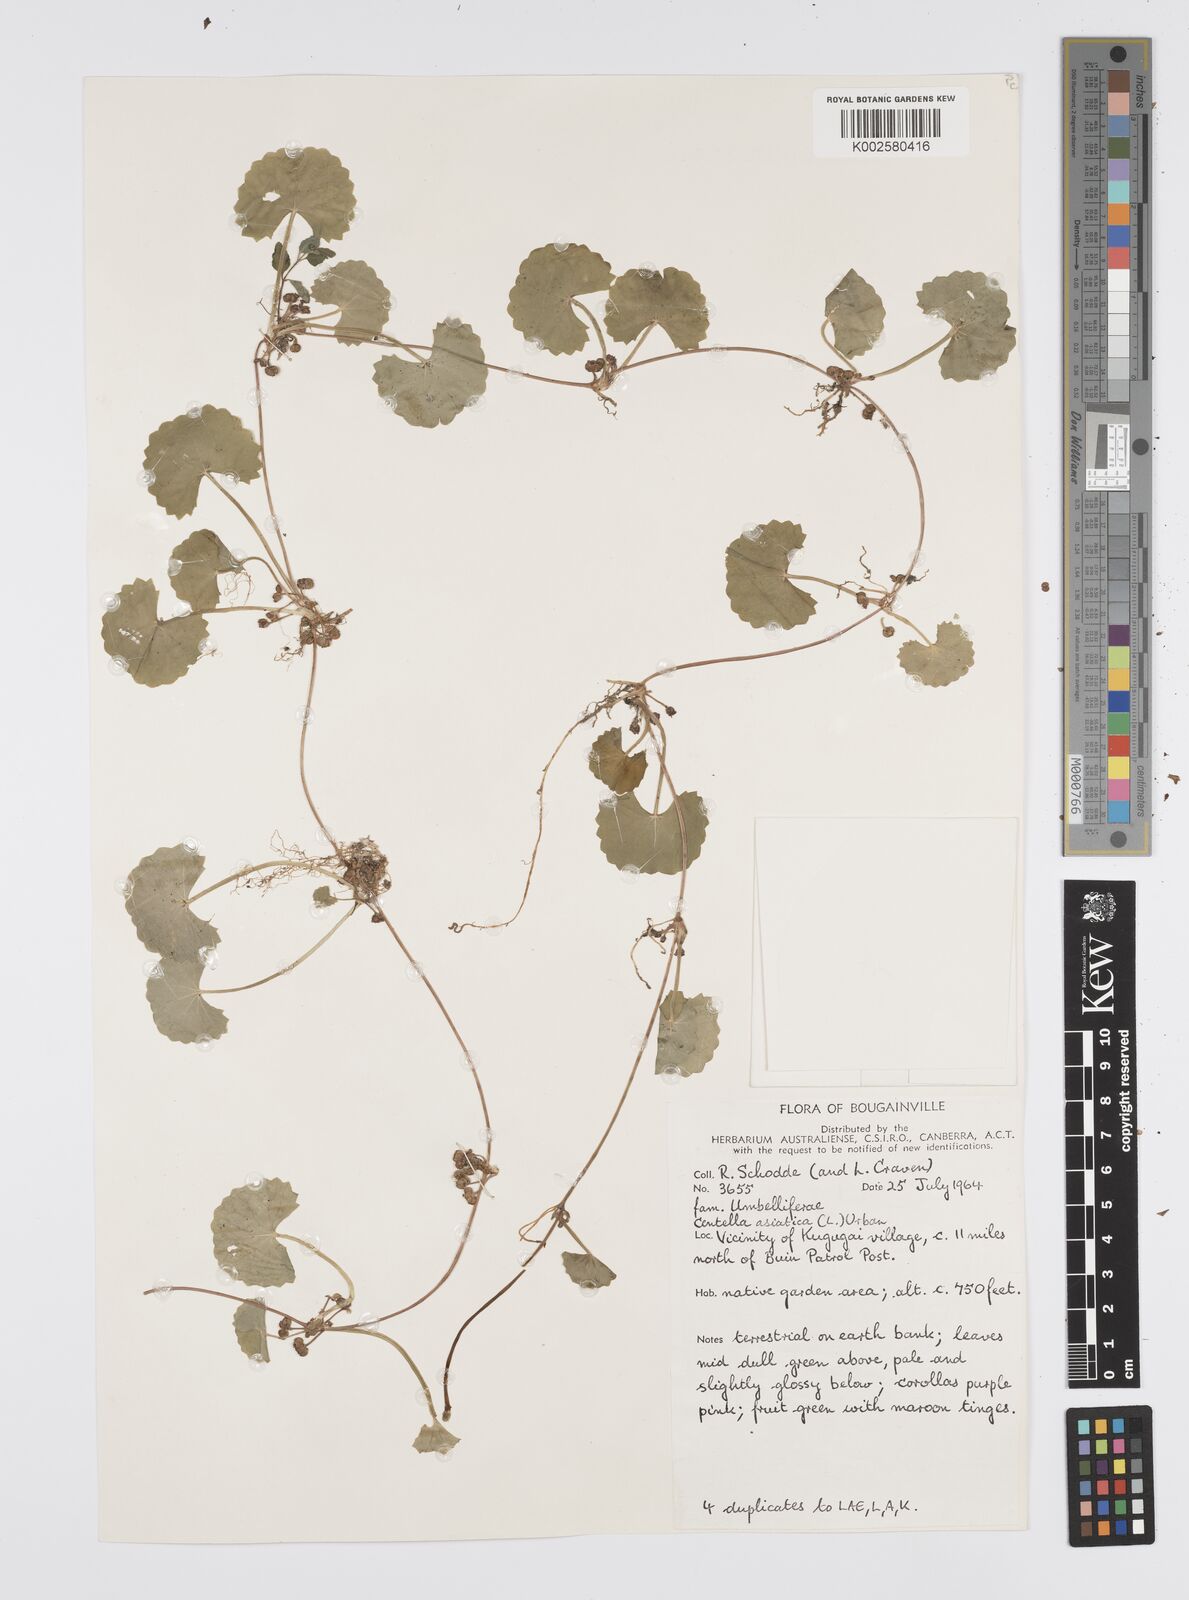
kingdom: Plantae
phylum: Tracheophyta
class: Magnoliopsida
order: Apiales
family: Apiaceae
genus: Centella
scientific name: Centella asiatica
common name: Spadeleaf
